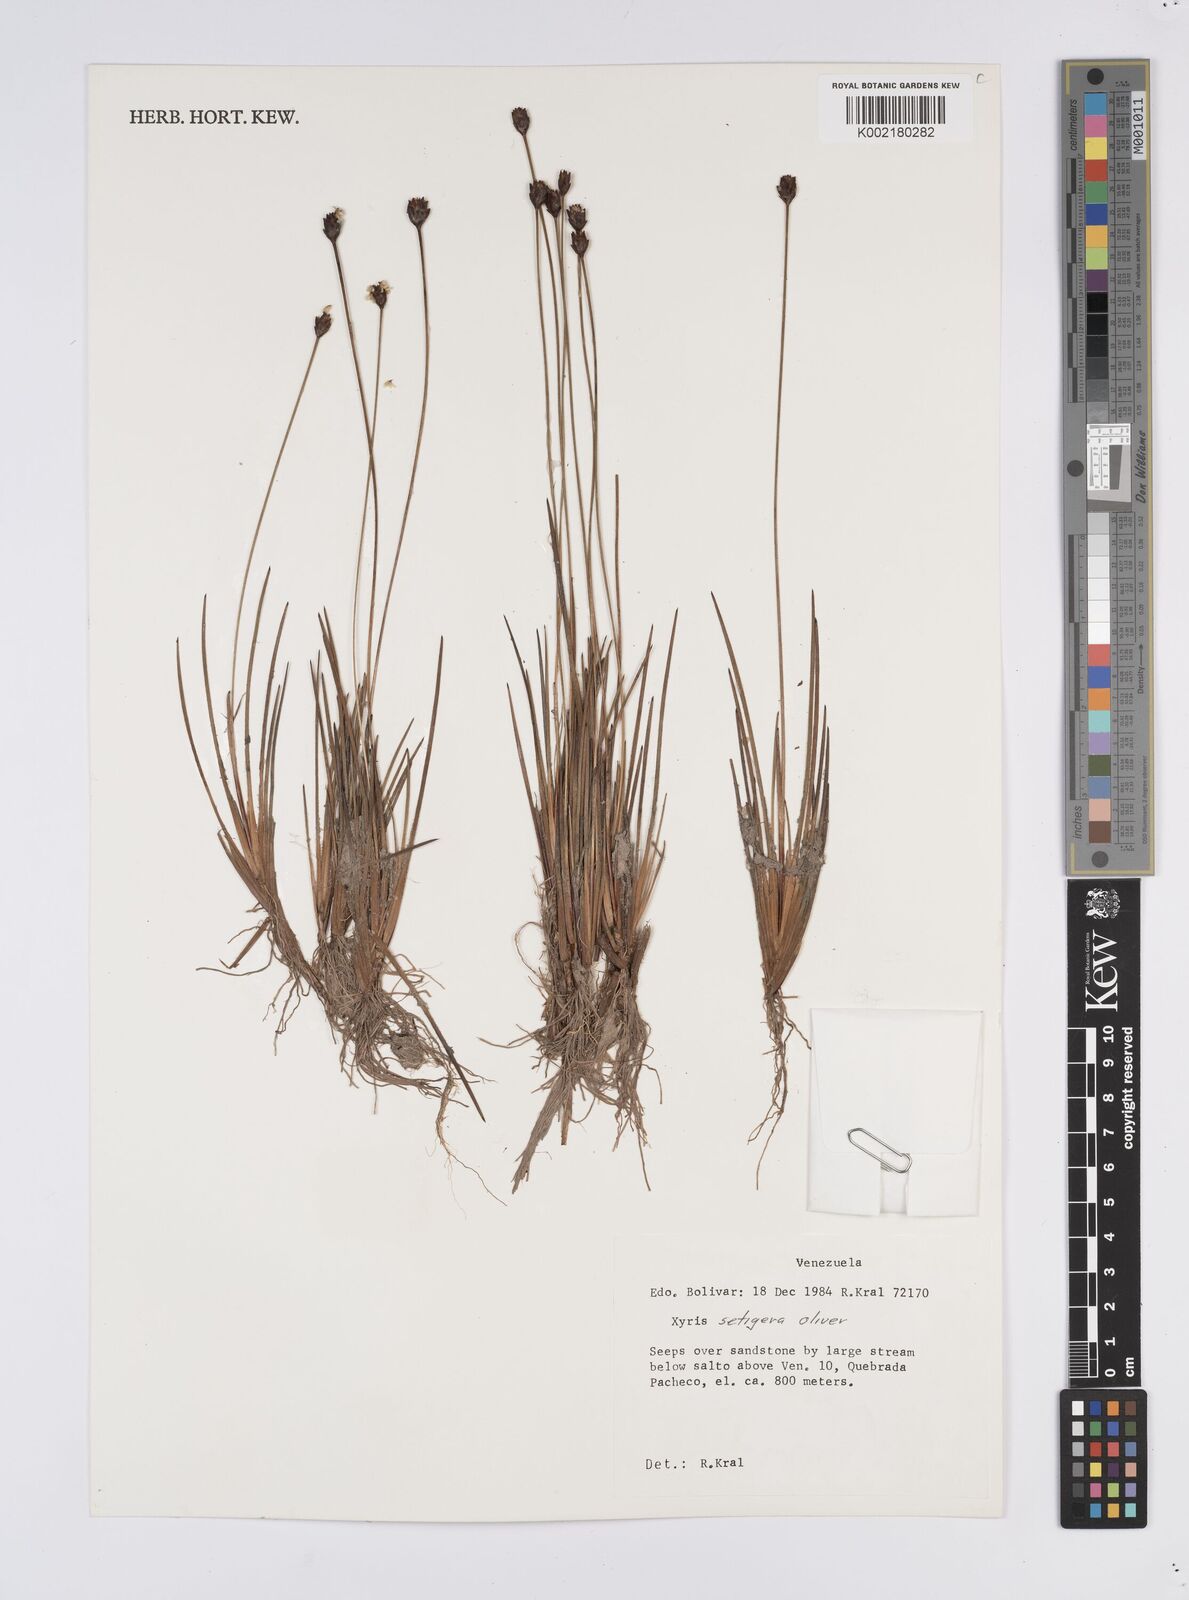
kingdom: Plantae
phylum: Tracheophyta
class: Liliopsida
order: Poales
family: Xyridaceae
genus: Xyris
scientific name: Xyris setigera
